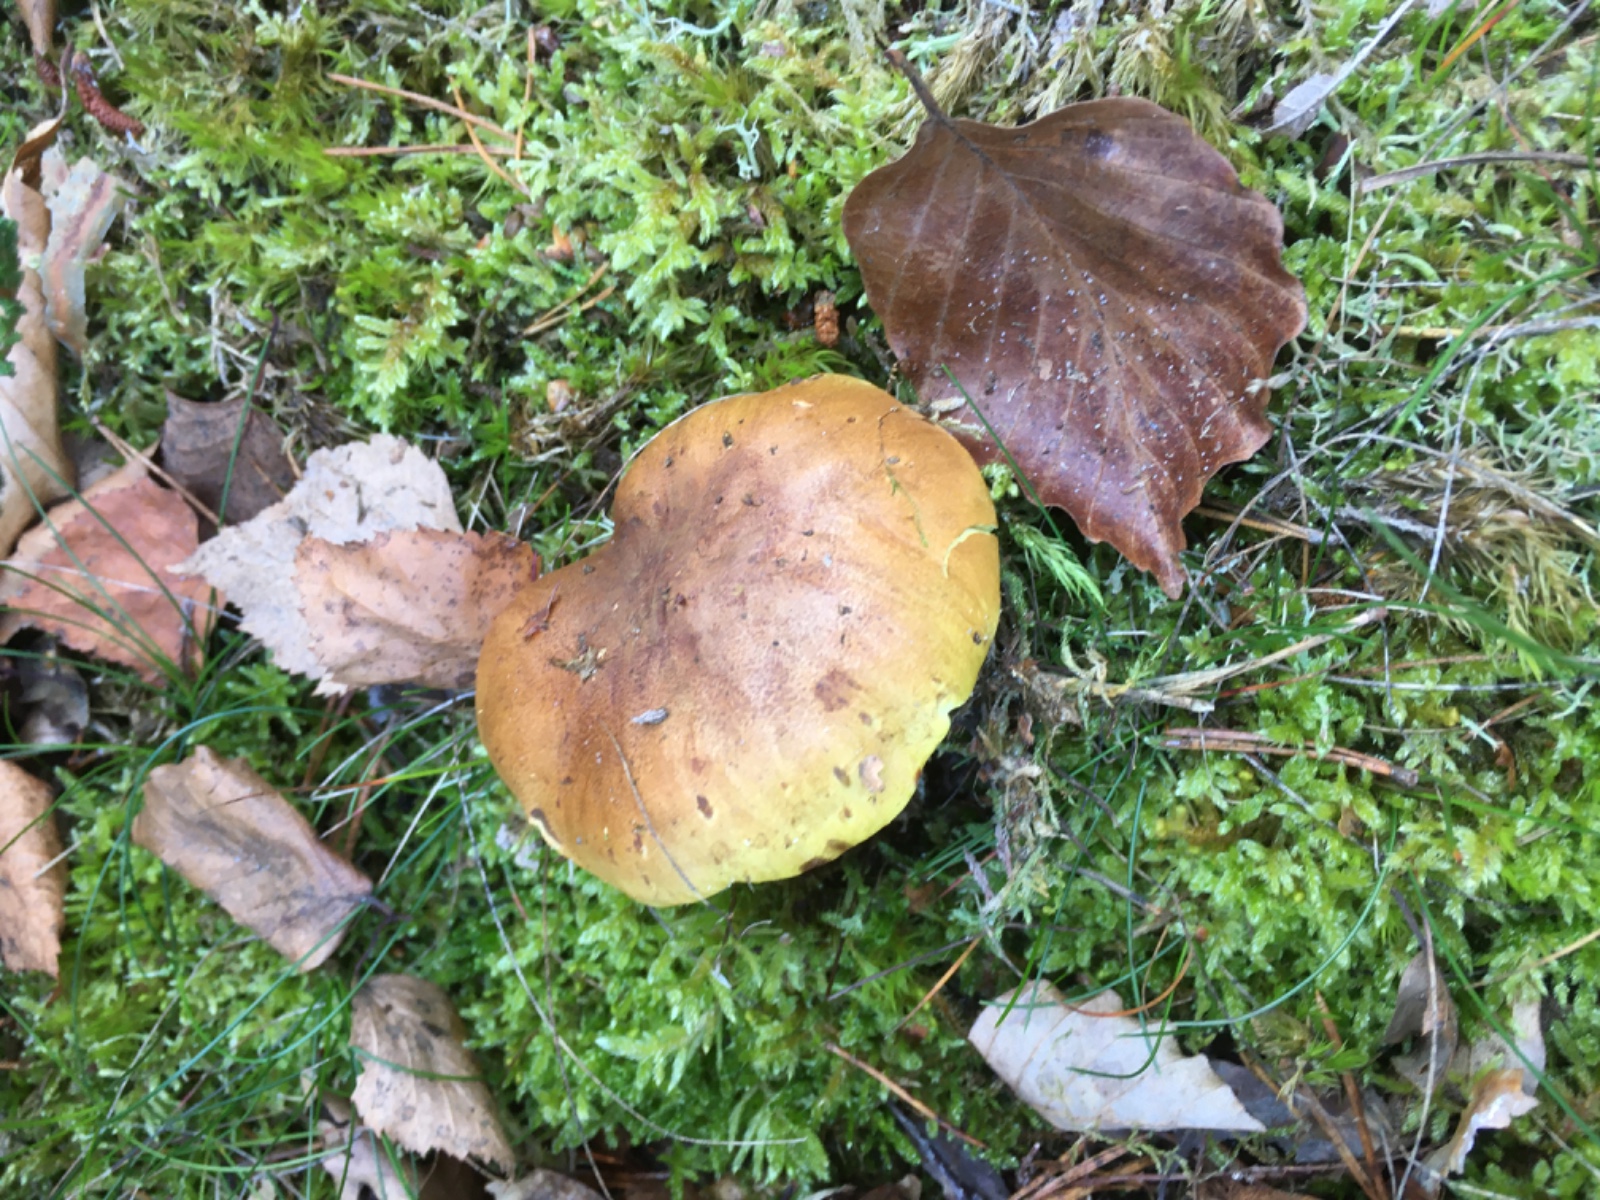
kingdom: Fungi
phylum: Basidiomycota
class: Agaricomycetes
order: Agaricales
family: Tricholomataceae
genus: Tricholoma
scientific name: Tricholoma equestre
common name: ægte ridderhat
